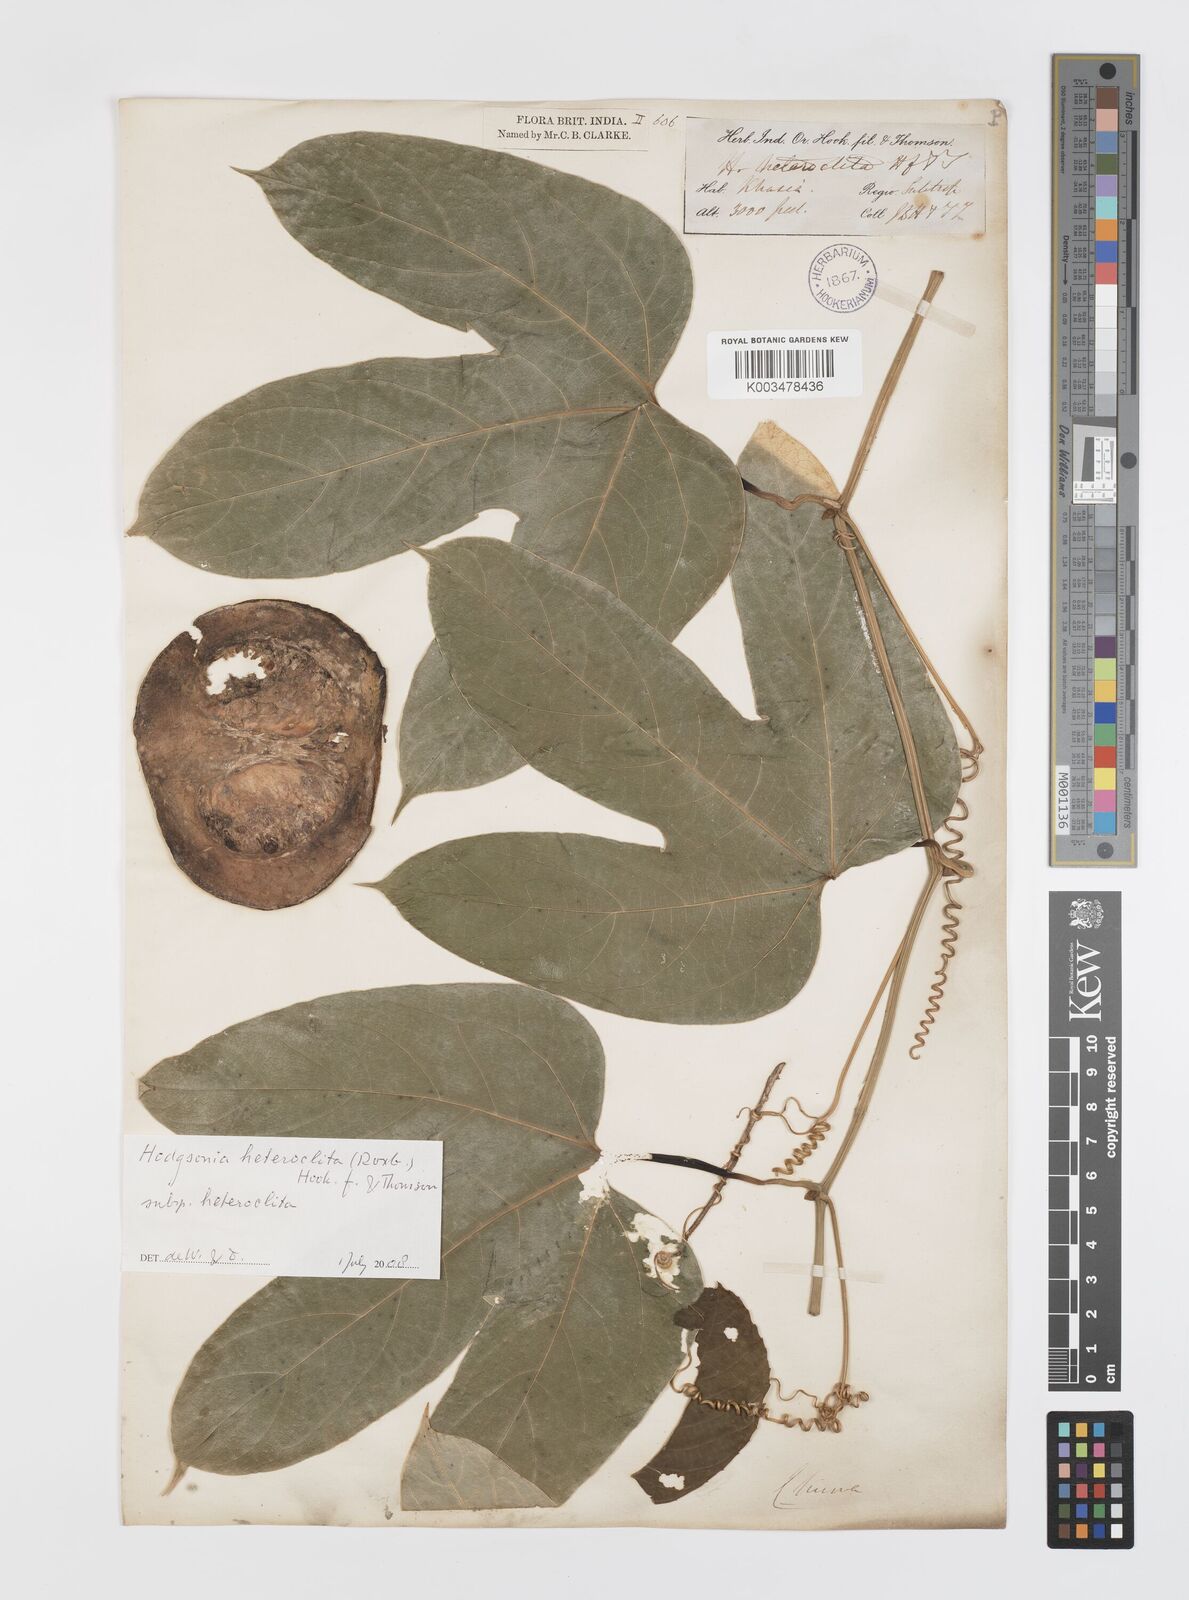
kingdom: Plantae
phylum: Tracheophyta
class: Magnoliopsida
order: Cucurbitales
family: Cucurbitaceae
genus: Hodgsonia
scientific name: Hodgsonia macrocarpa
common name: Chinese lardfruit
